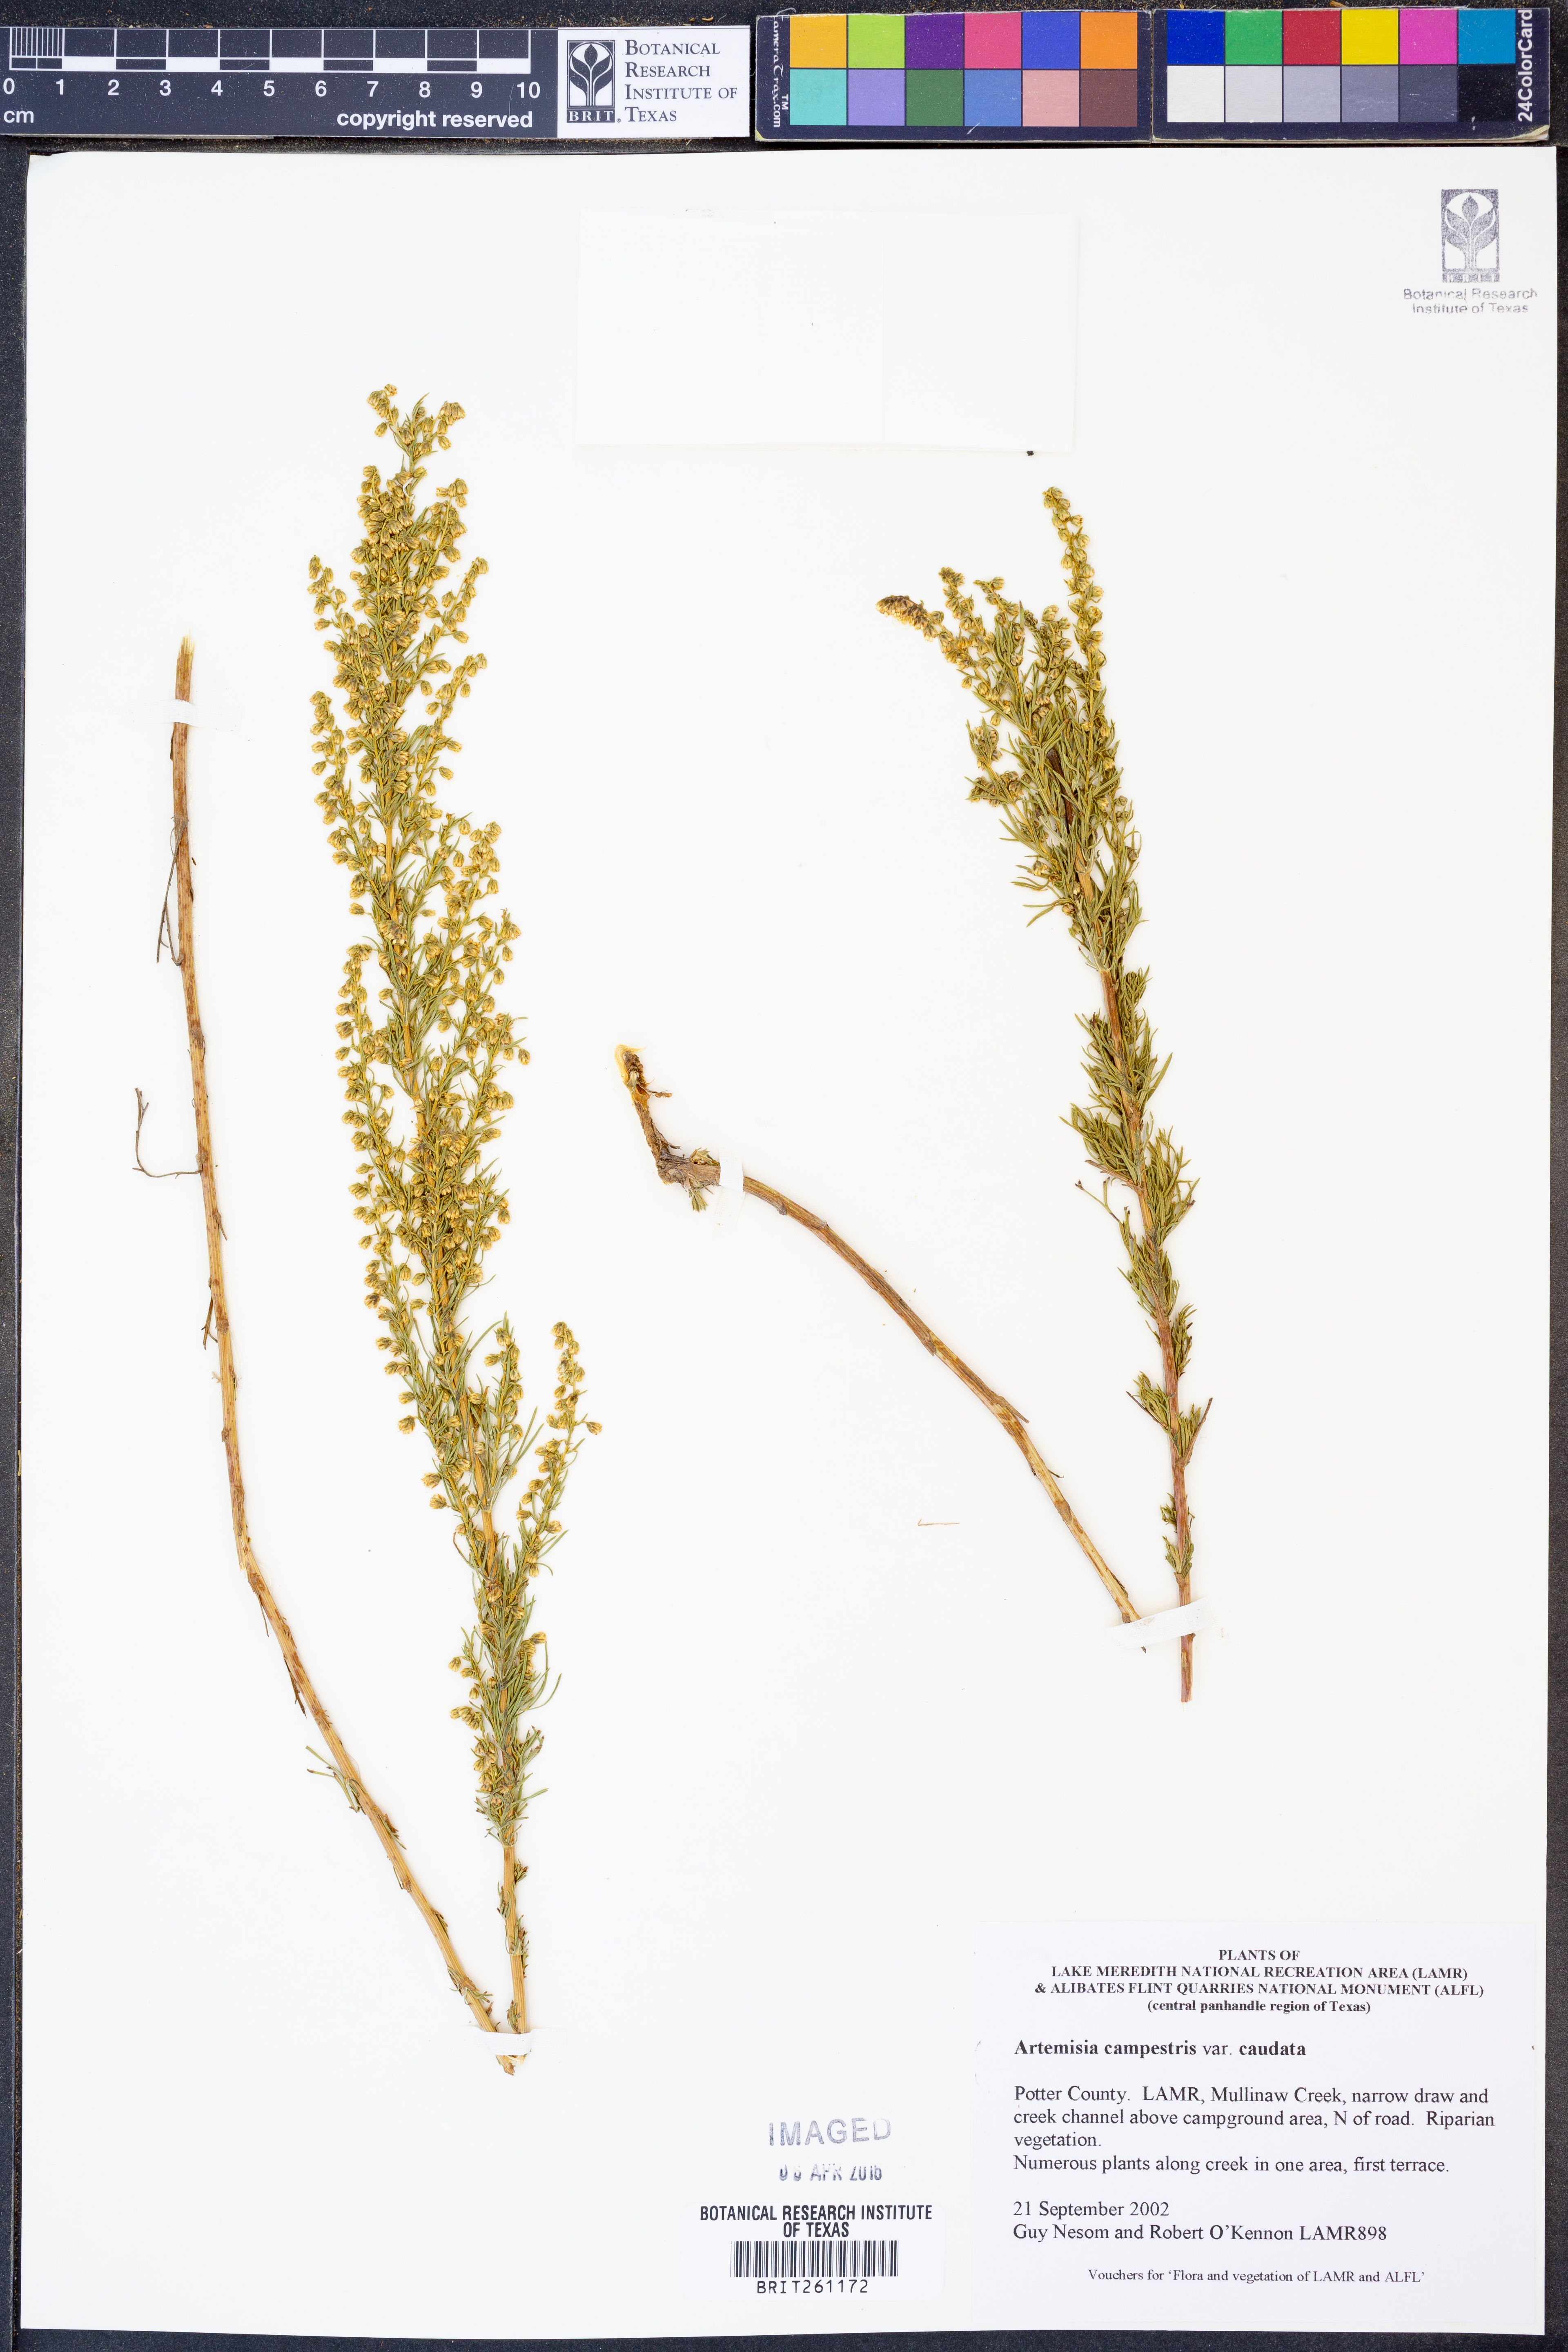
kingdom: Plantae
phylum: Tracheophyta
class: Magnoliopsida
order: Asterales
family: Asteraceae
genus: Artemisia
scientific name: Artemisia campestris
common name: Field wormwood
